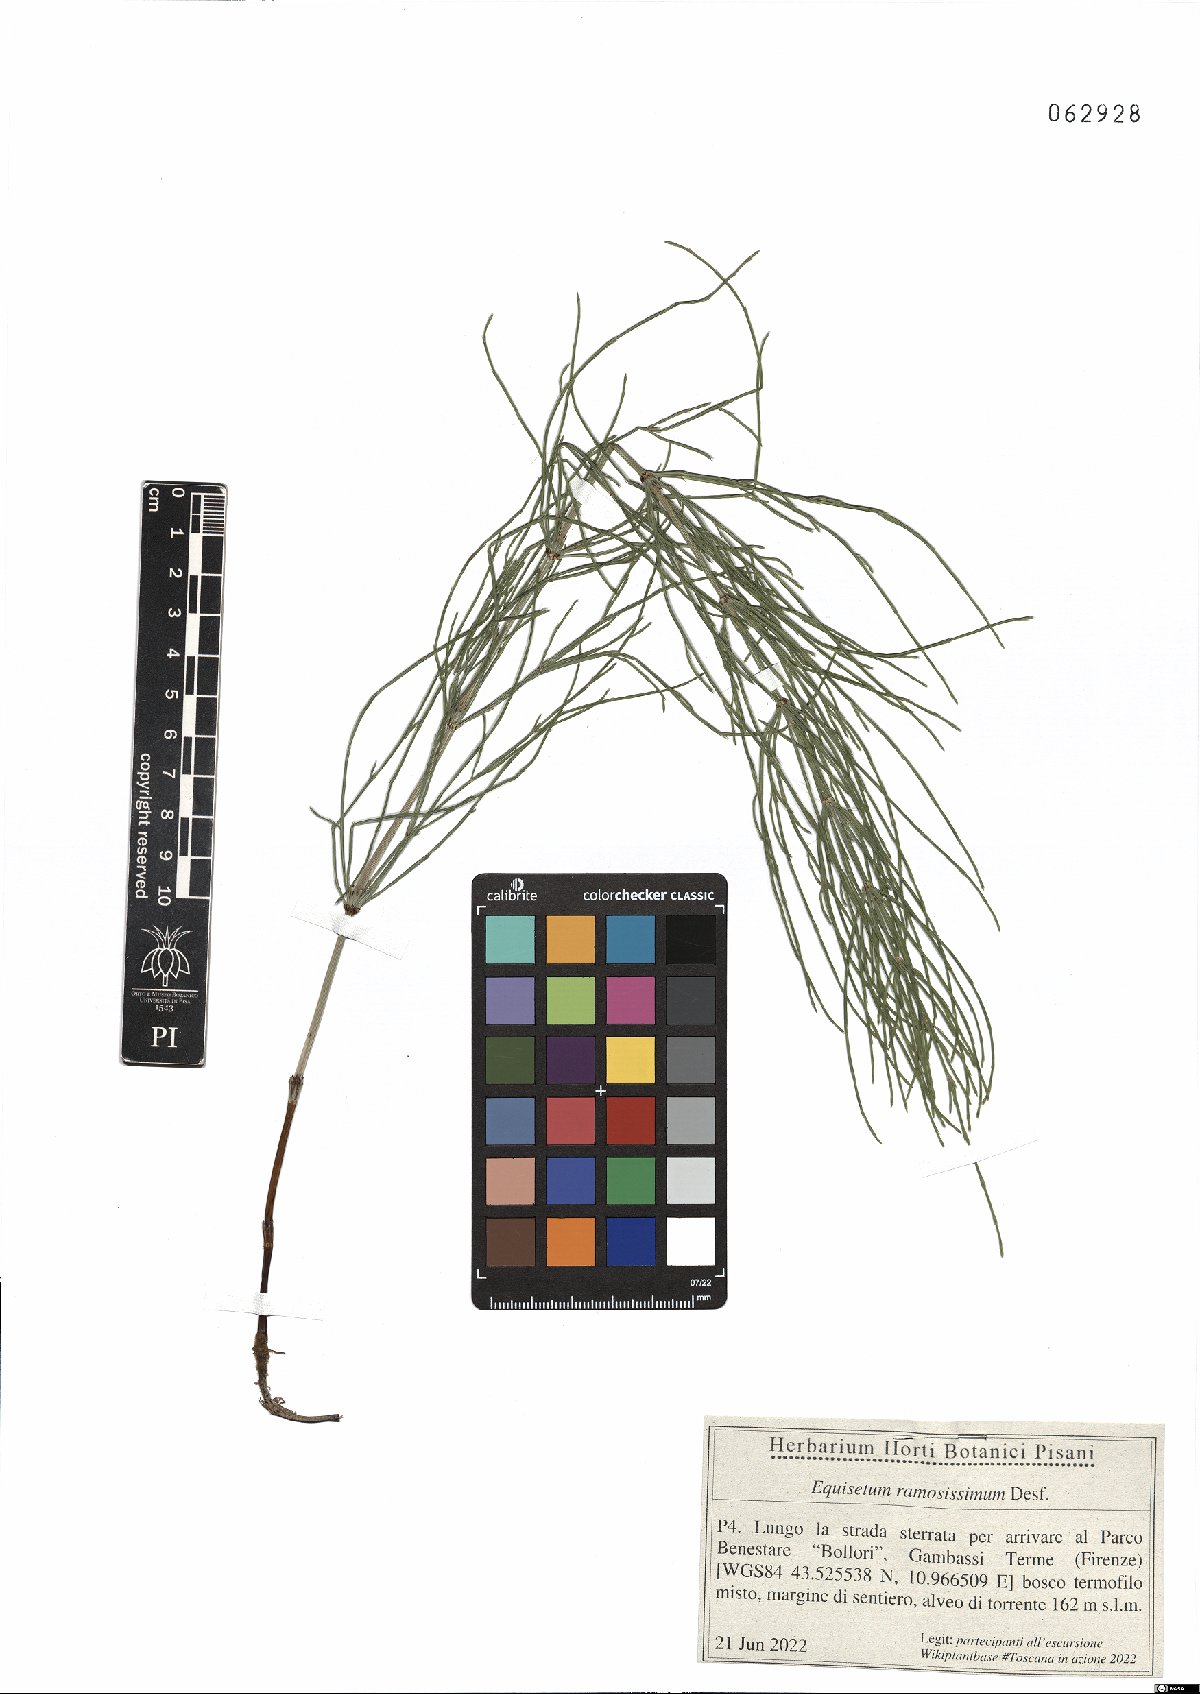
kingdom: Plantae
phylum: Tracheophyta
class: Polypodiopsida
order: Equisetales
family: Equisetaceae
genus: Equisetum
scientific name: Equisetum ramosissimum
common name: Branched horsetail
